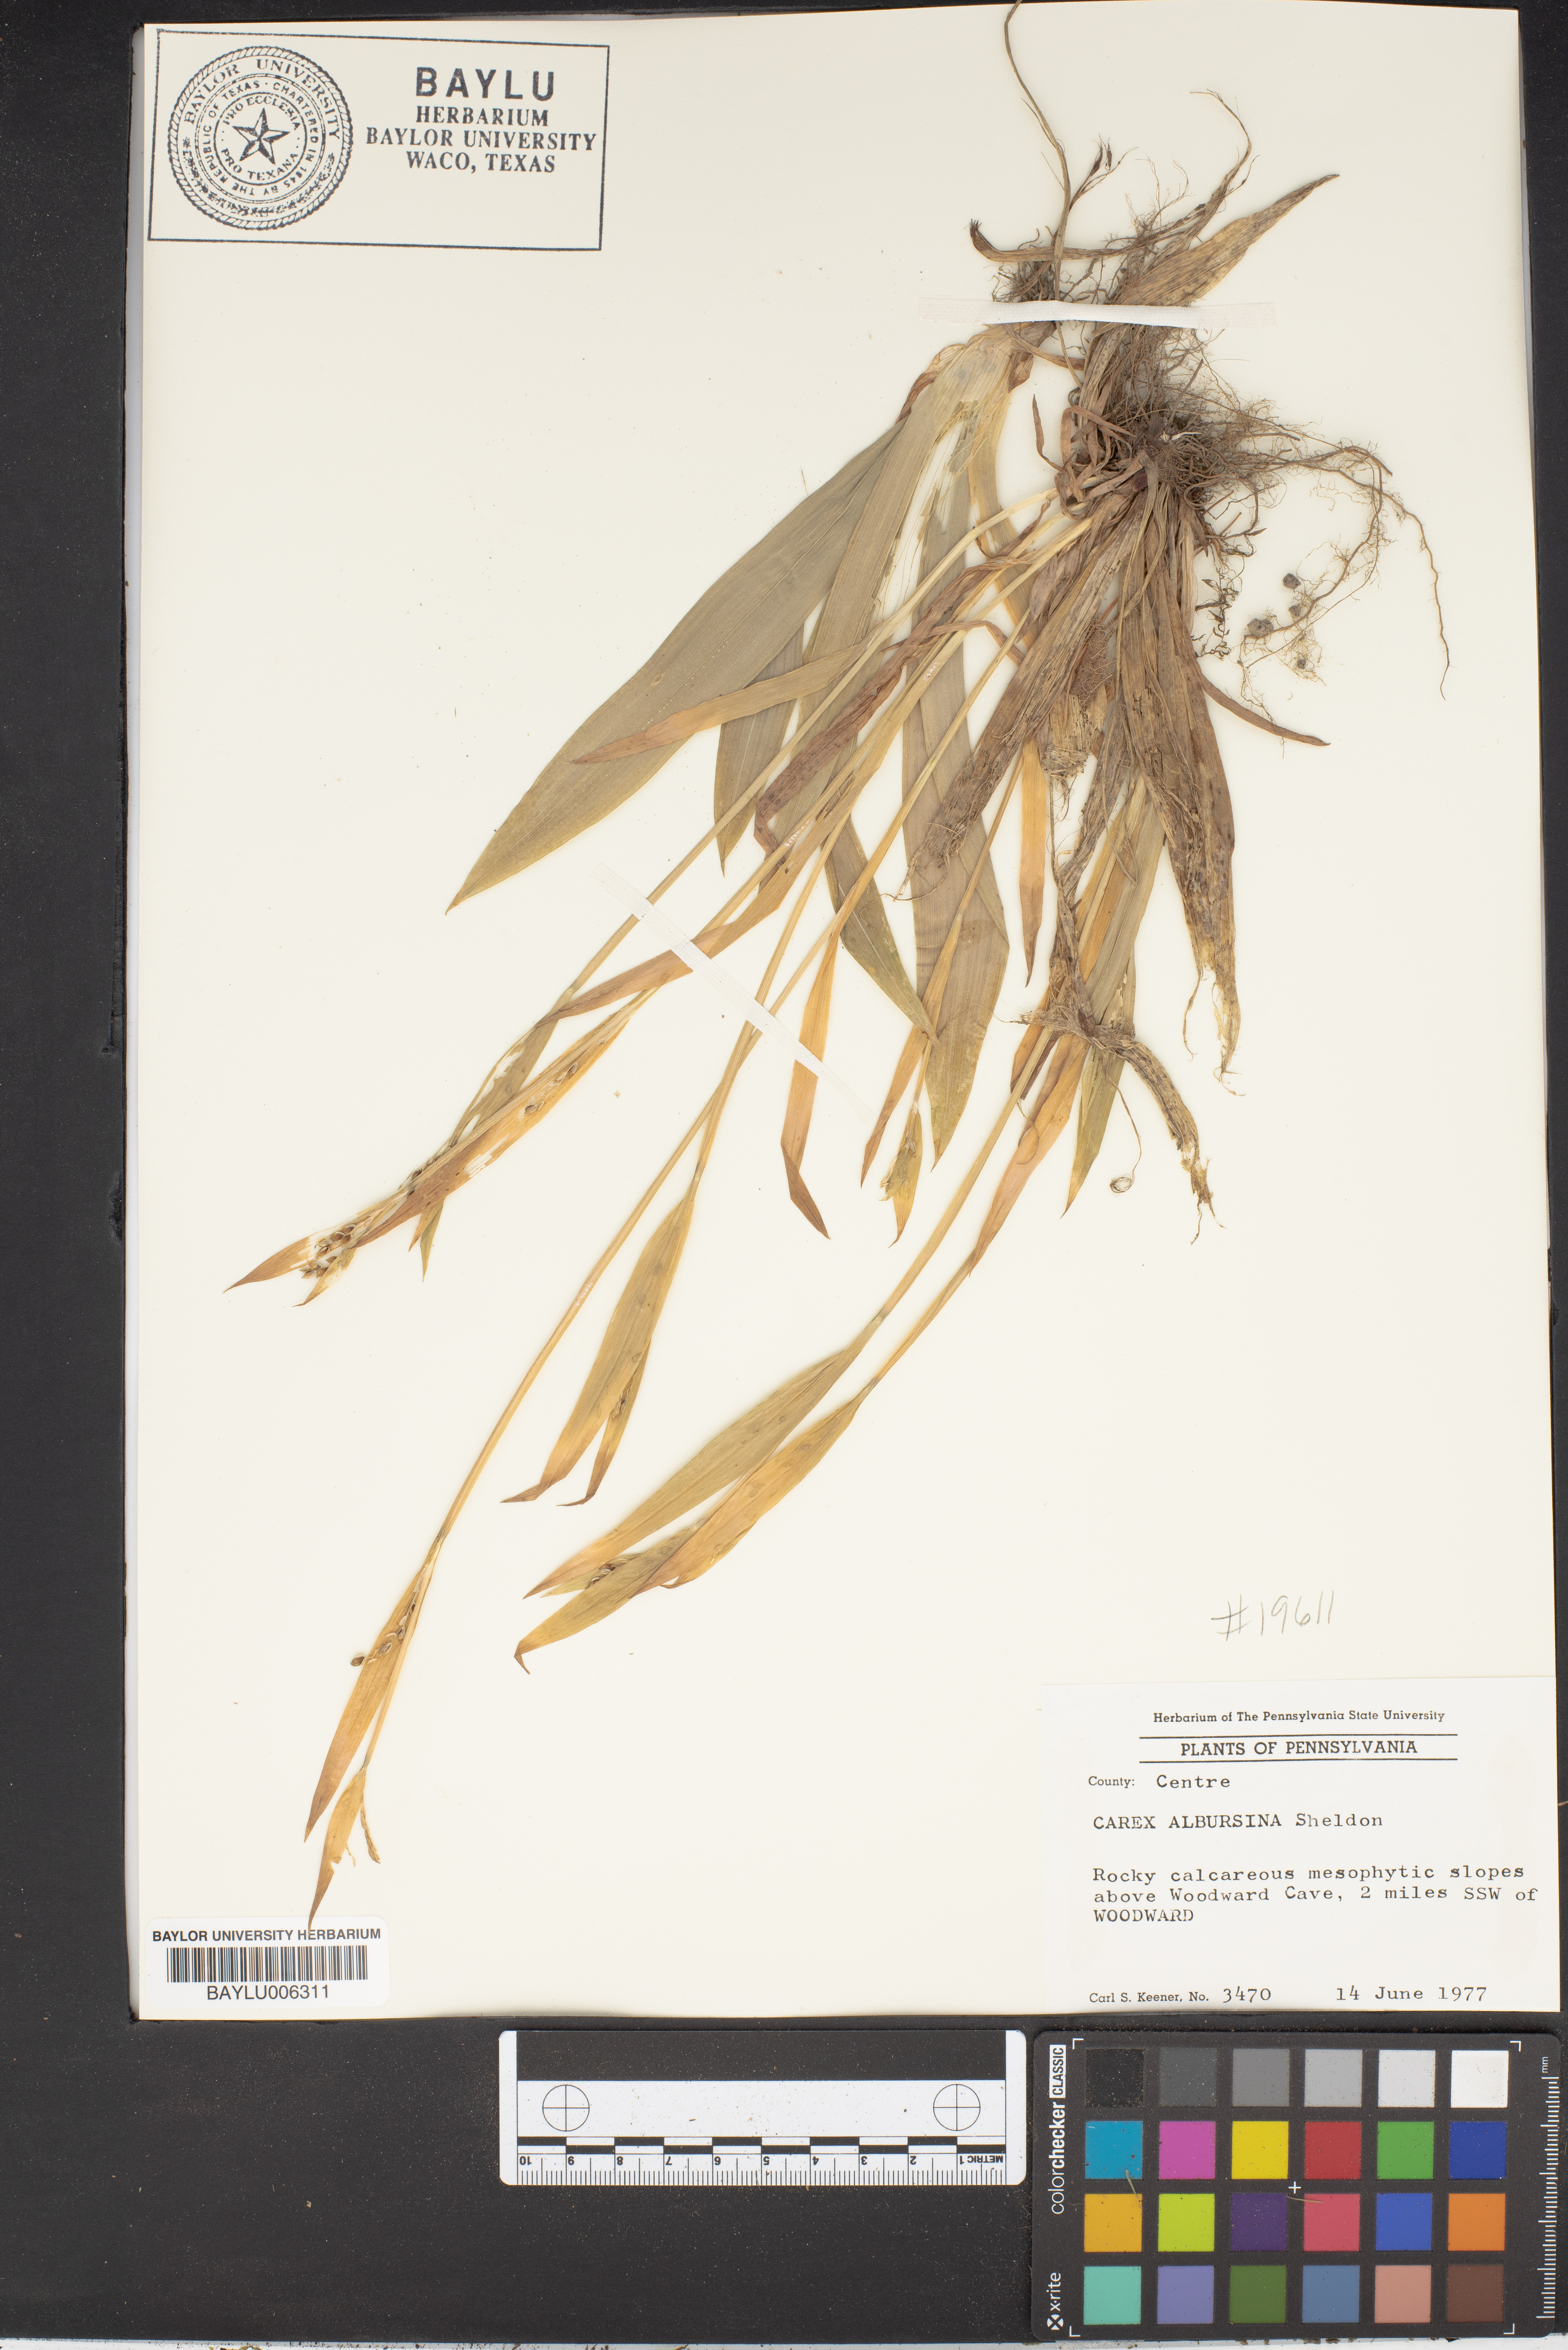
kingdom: Plantae
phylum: Tracheophyta
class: Liliopsida
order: Poales
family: Cyperaceae
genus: Carex
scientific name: Carex albursina
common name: Blunt-scale wood sedge
